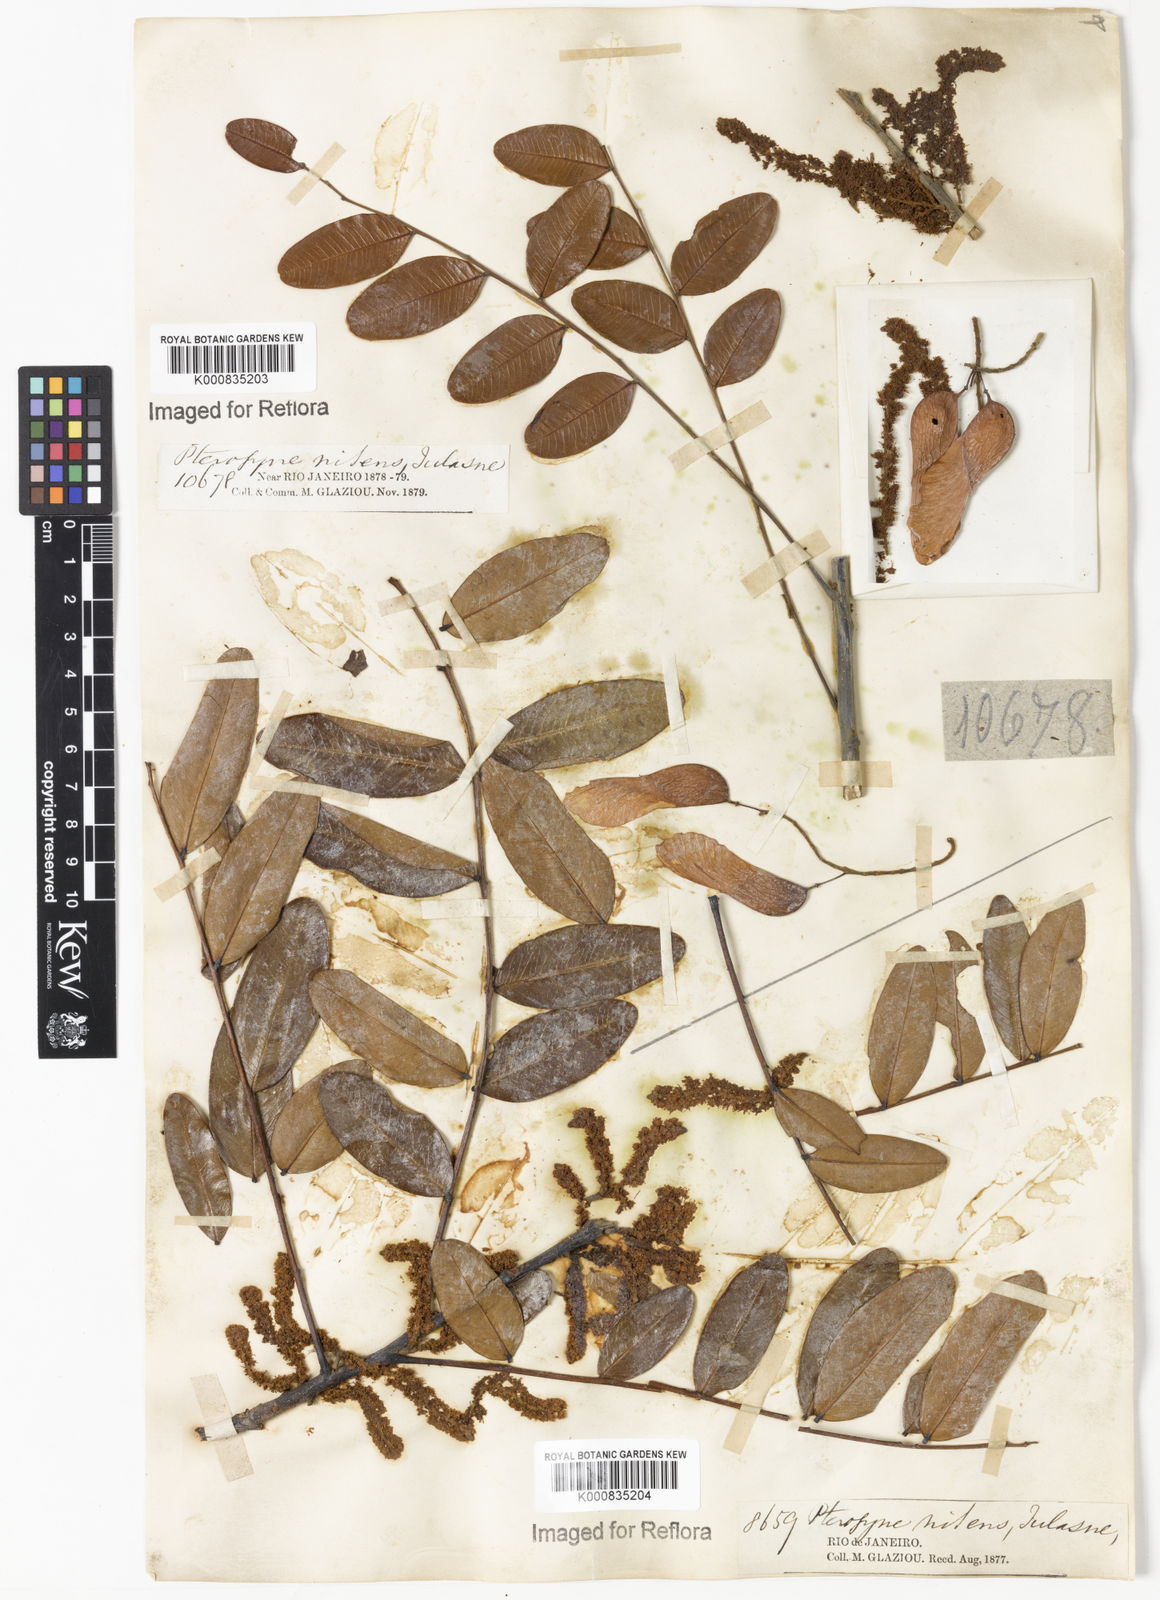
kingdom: Plantae
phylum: Tracheophyta
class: Magnoliopsida
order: Fabales
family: Fabaceae
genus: Pterogyne
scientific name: Pterogyne nitens
